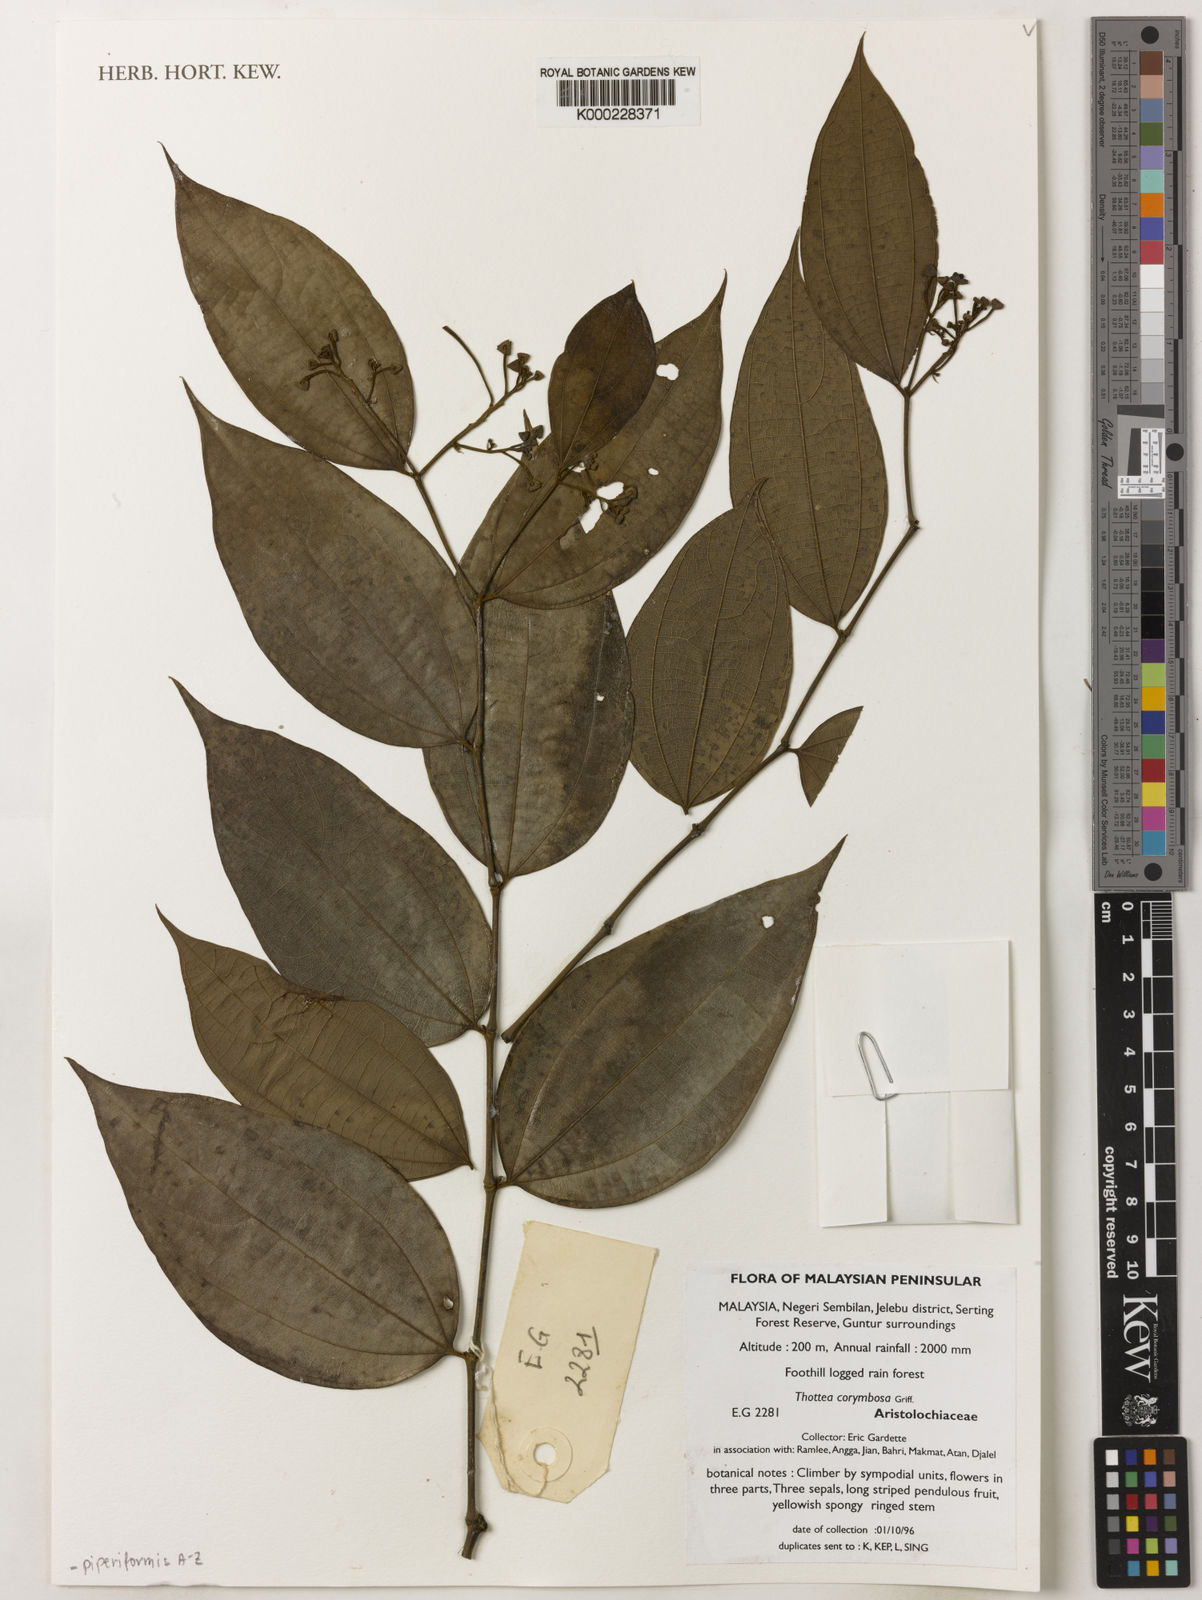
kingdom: Plantae
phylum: Tracheophyta
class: Magnoliopsida
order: Piperales
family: Aristolochiaceae
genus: Thottea
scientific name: Thottea
